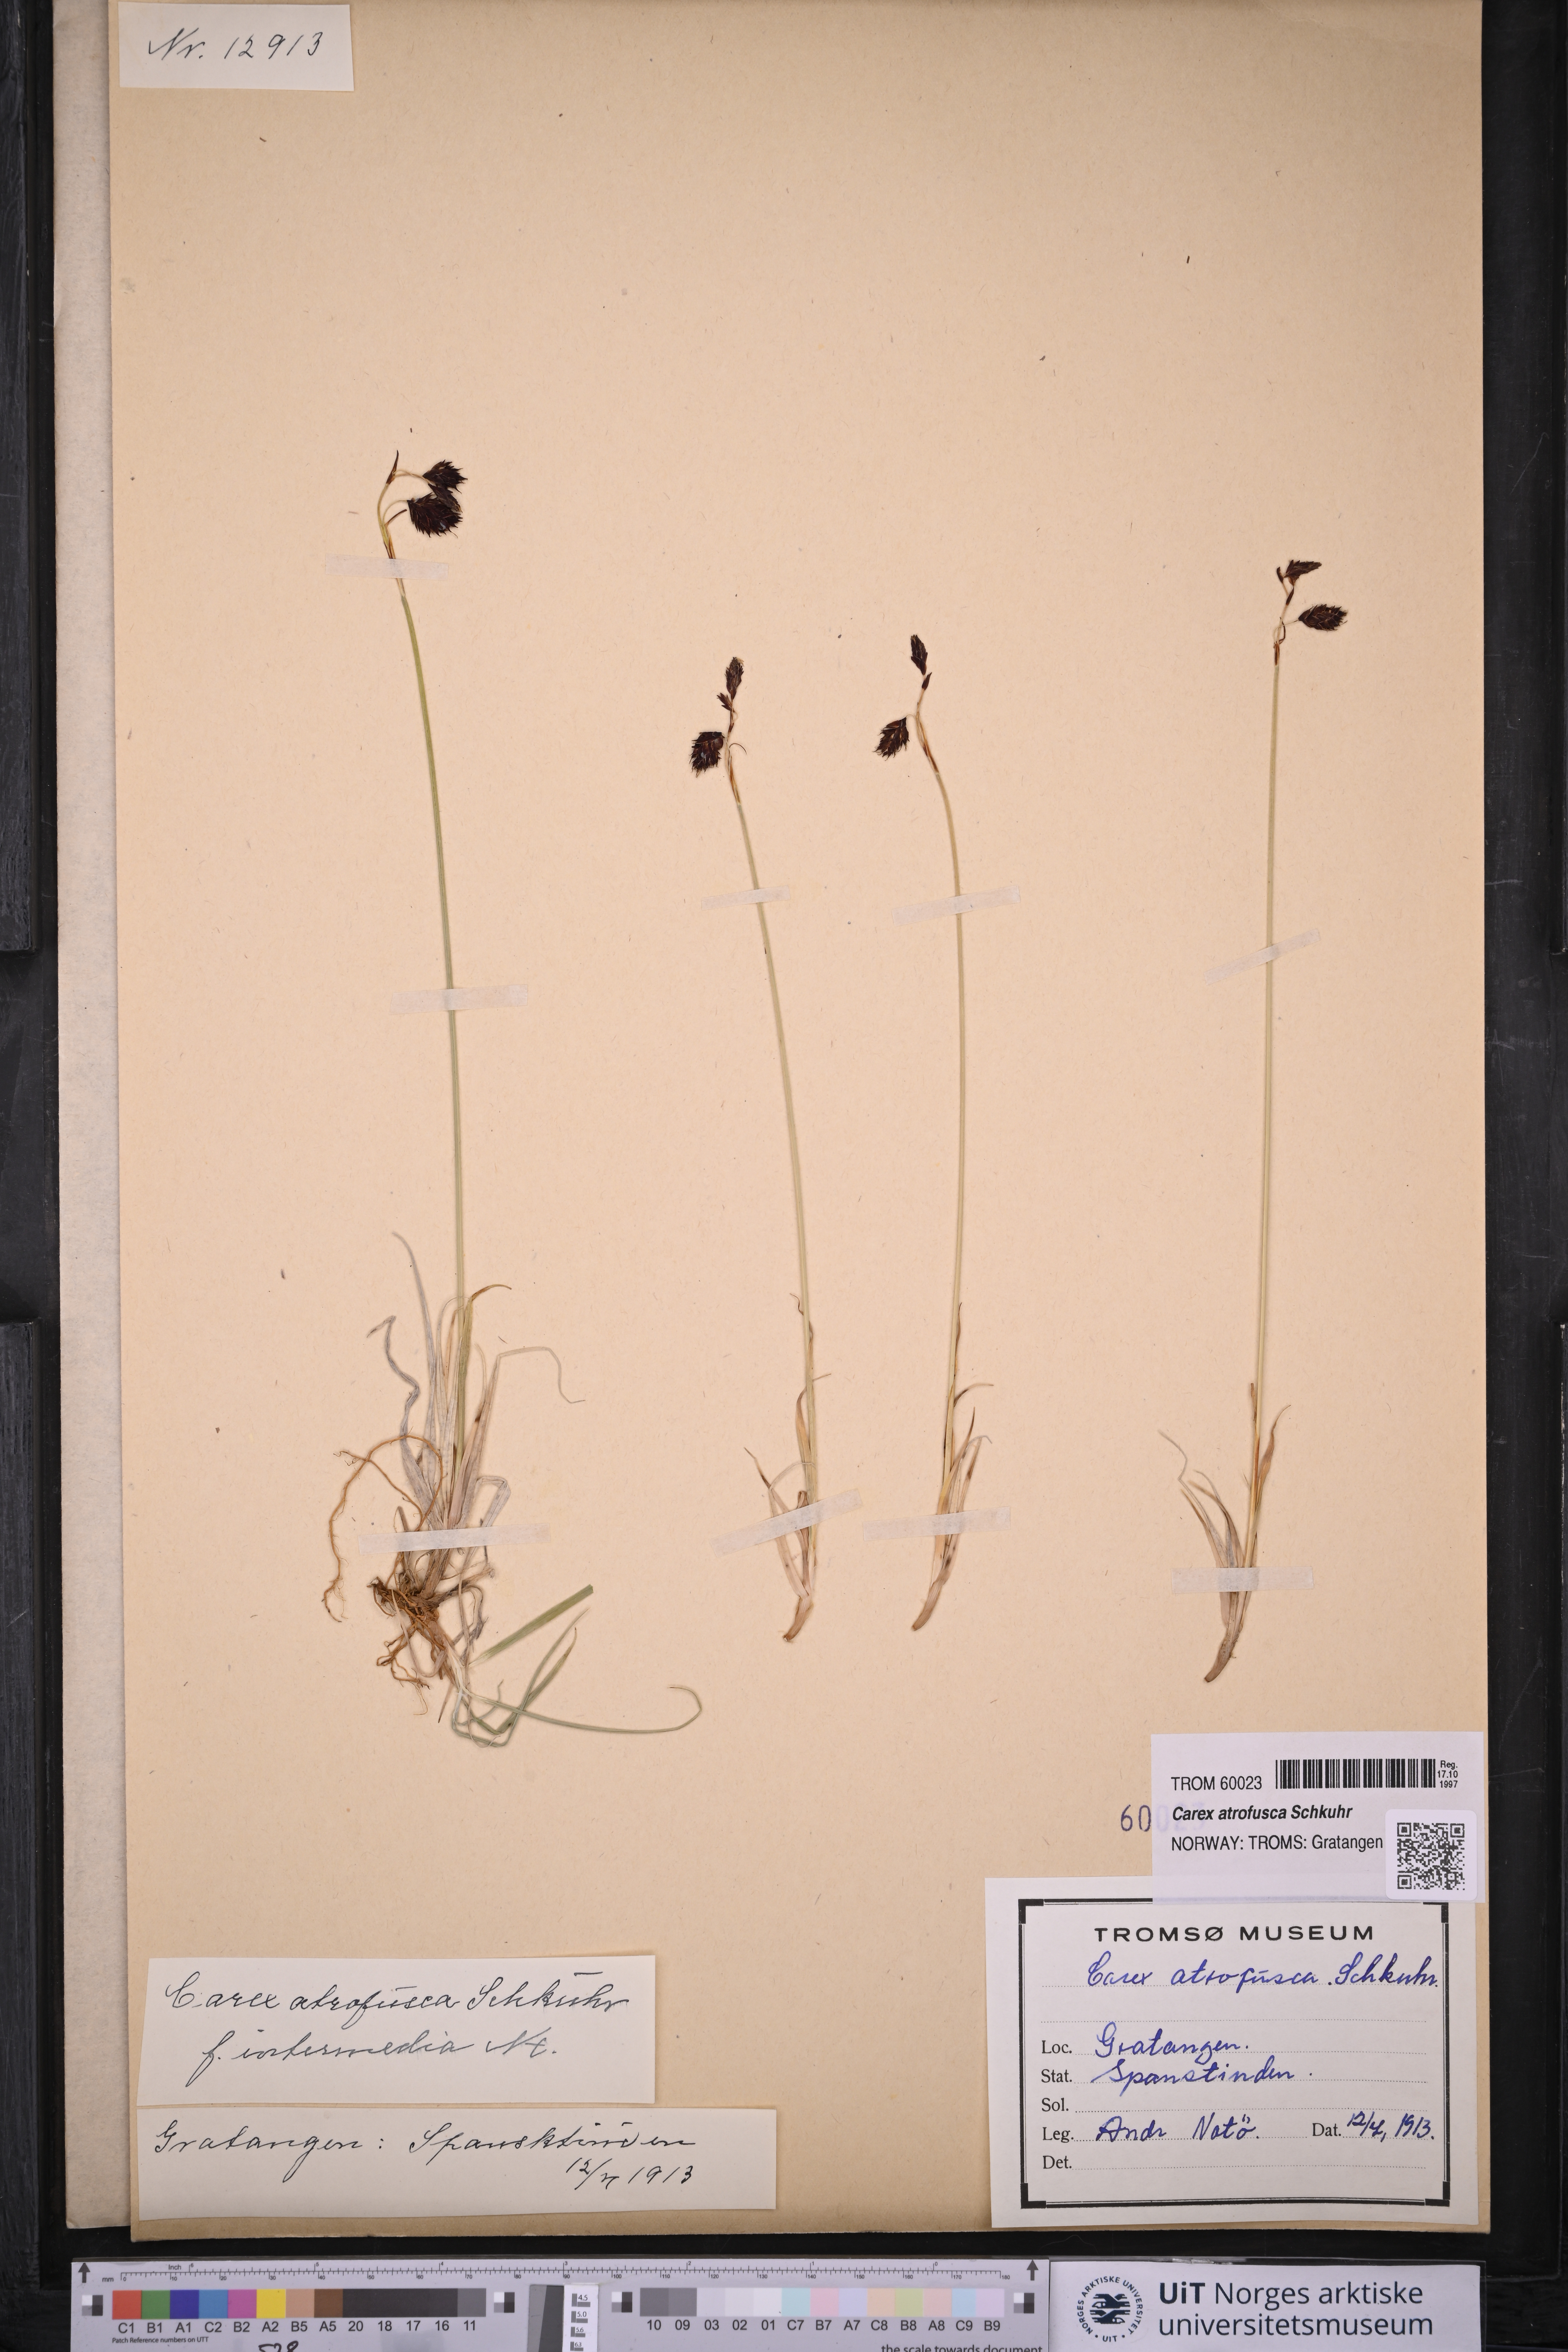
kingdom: Plantae
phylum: Tracheophyta
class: Liliopsida
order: Poales
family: Cyperaceae
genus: Carex
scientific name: Carex atrofusca
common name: Scorched alpine-sedge
